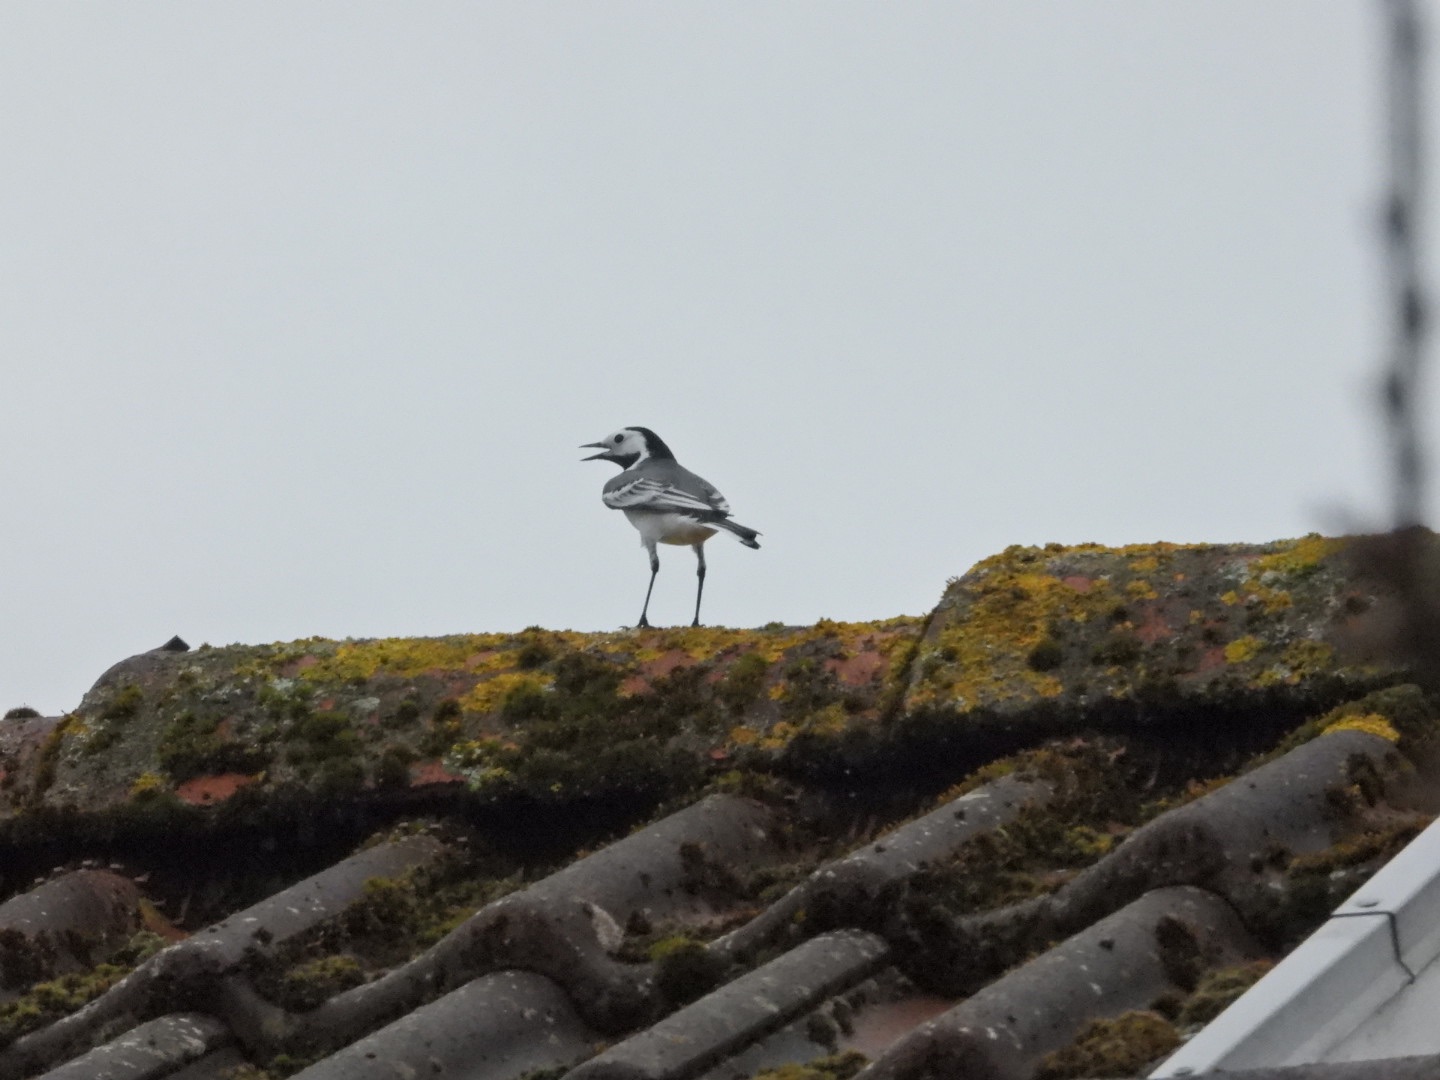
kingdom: Animalia
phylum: Chordata
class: Aves
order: Passeriformes
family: Motacillidae
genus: Motacilla
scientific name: Motacilla alba
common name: Hvid vipstjert
